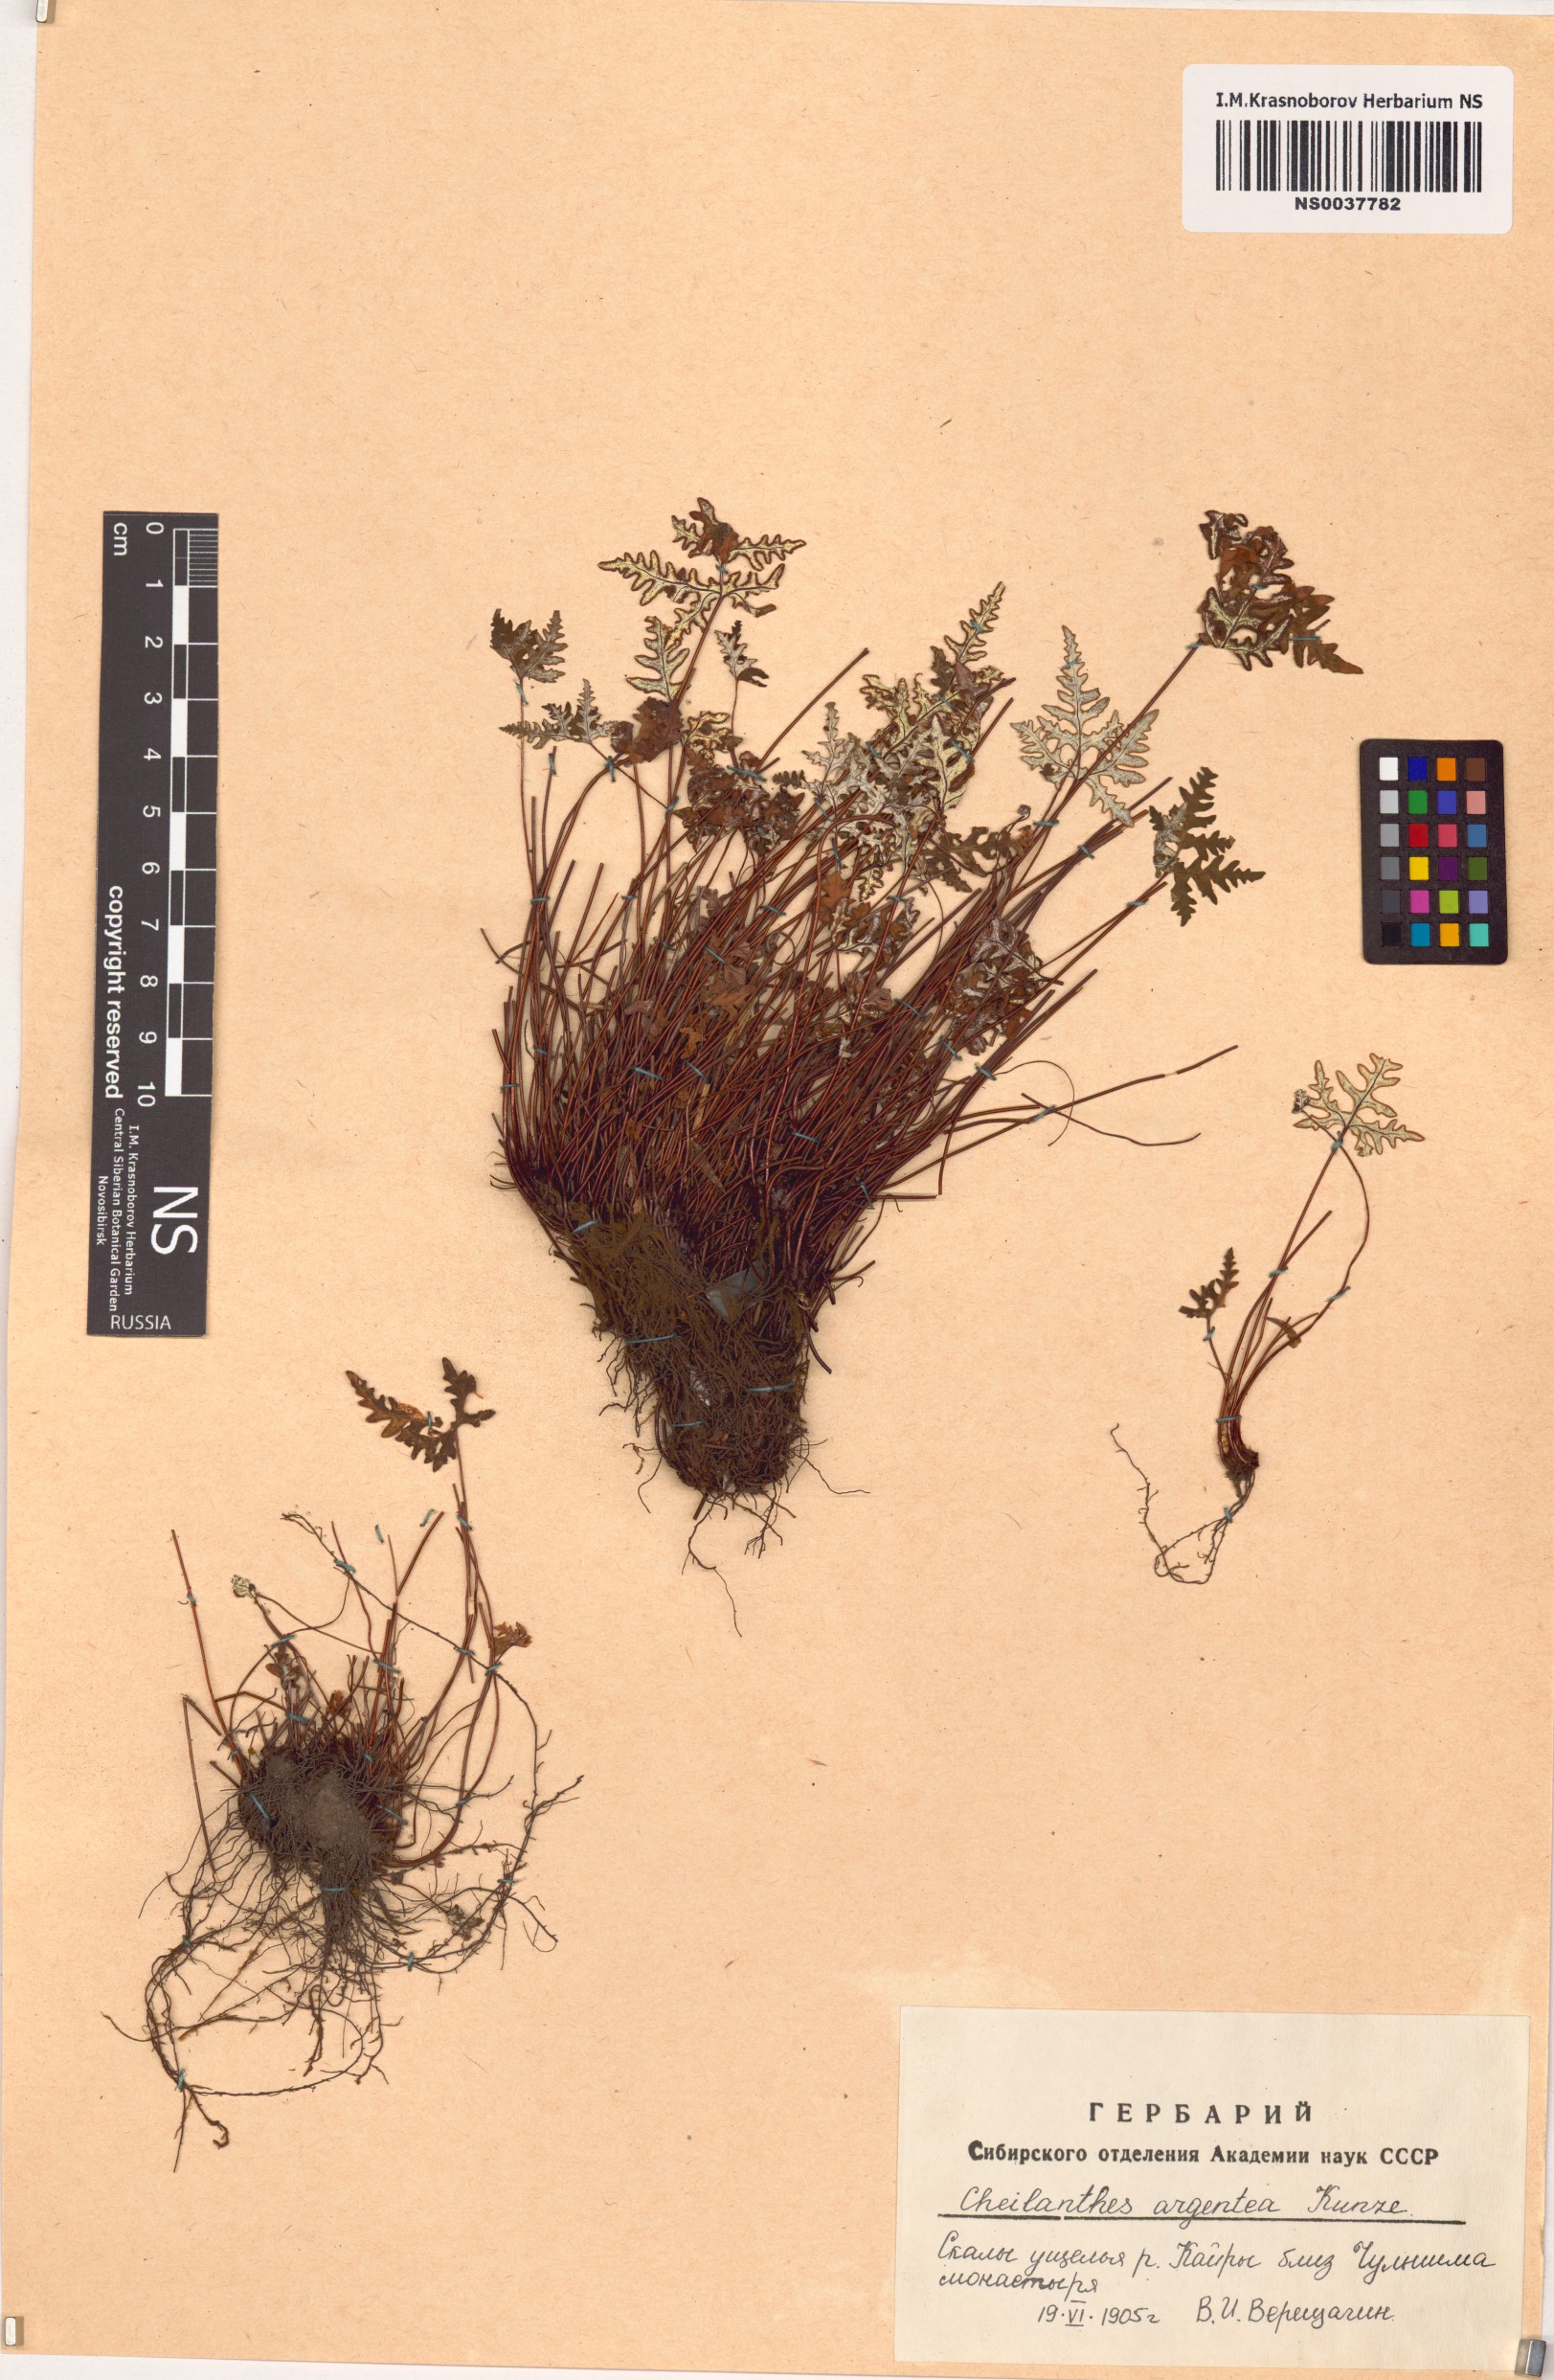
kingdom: Plantae
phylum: Tracheophyta
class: Polypodiopsida
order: Polypodiales
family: Pteridaceae
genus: Aleuritopteris
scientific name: Aleuritopteris argentea
